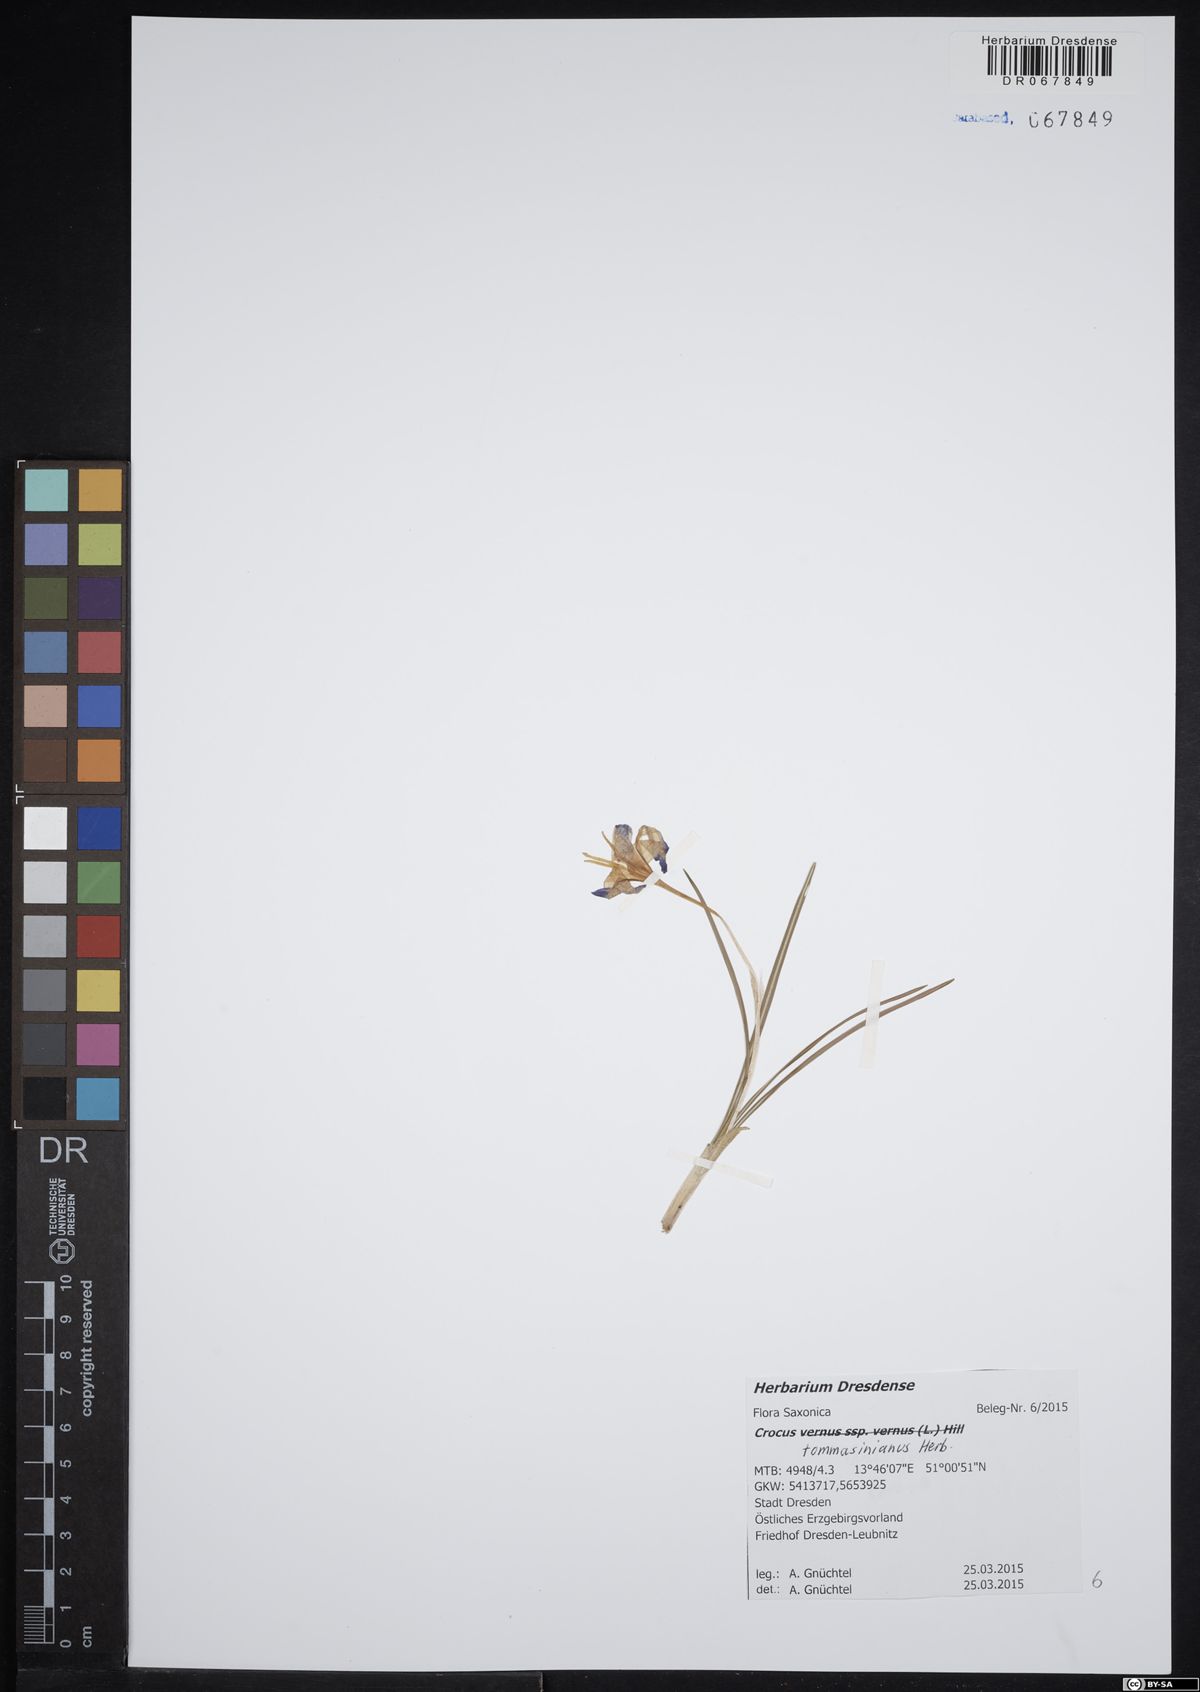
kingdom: Plantae
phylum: Tracheophyta
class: Liliopsida
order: Asparagales
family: Iridaceae
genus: Crocus
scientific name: Crocus tommasinianus
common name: Early crocus
